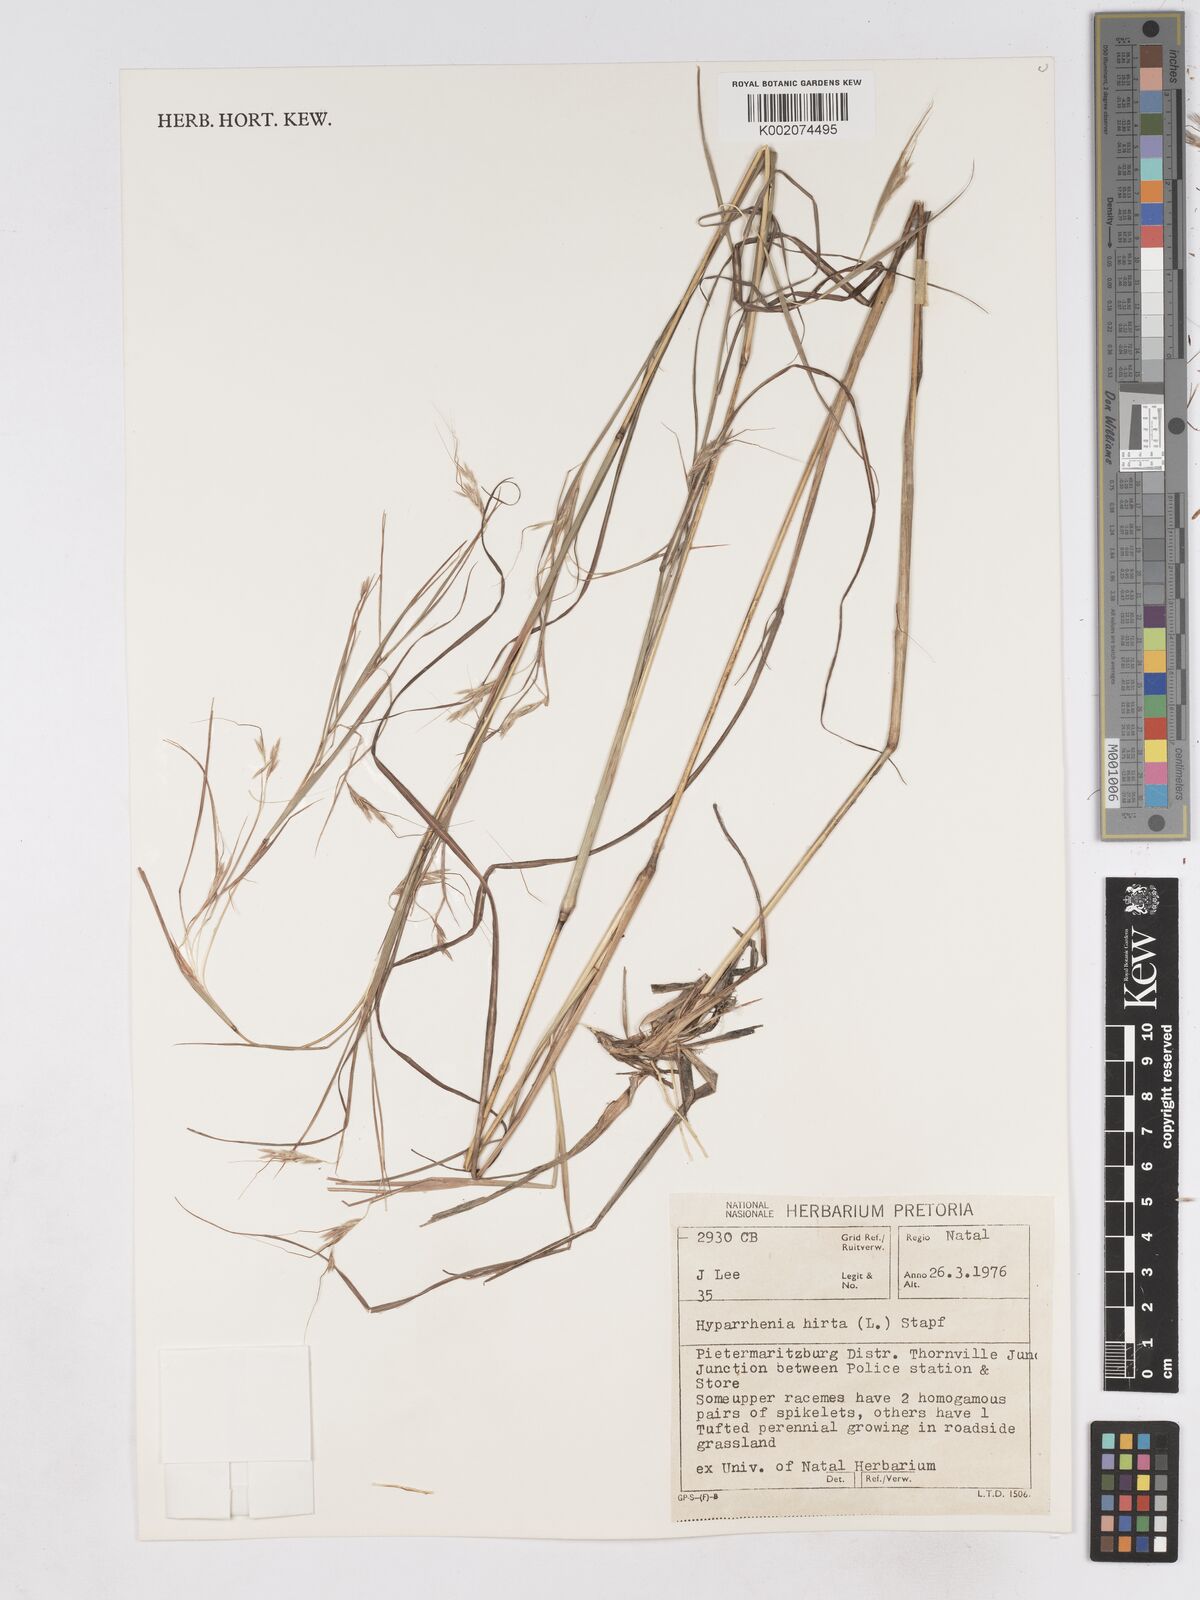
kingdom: Plantae
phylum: Tracheophyta
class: Liliopsida
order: Poales
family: Poaceae
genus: Hyparrhenia
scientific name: Hyparrhenia hirta
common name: Thatching grass
